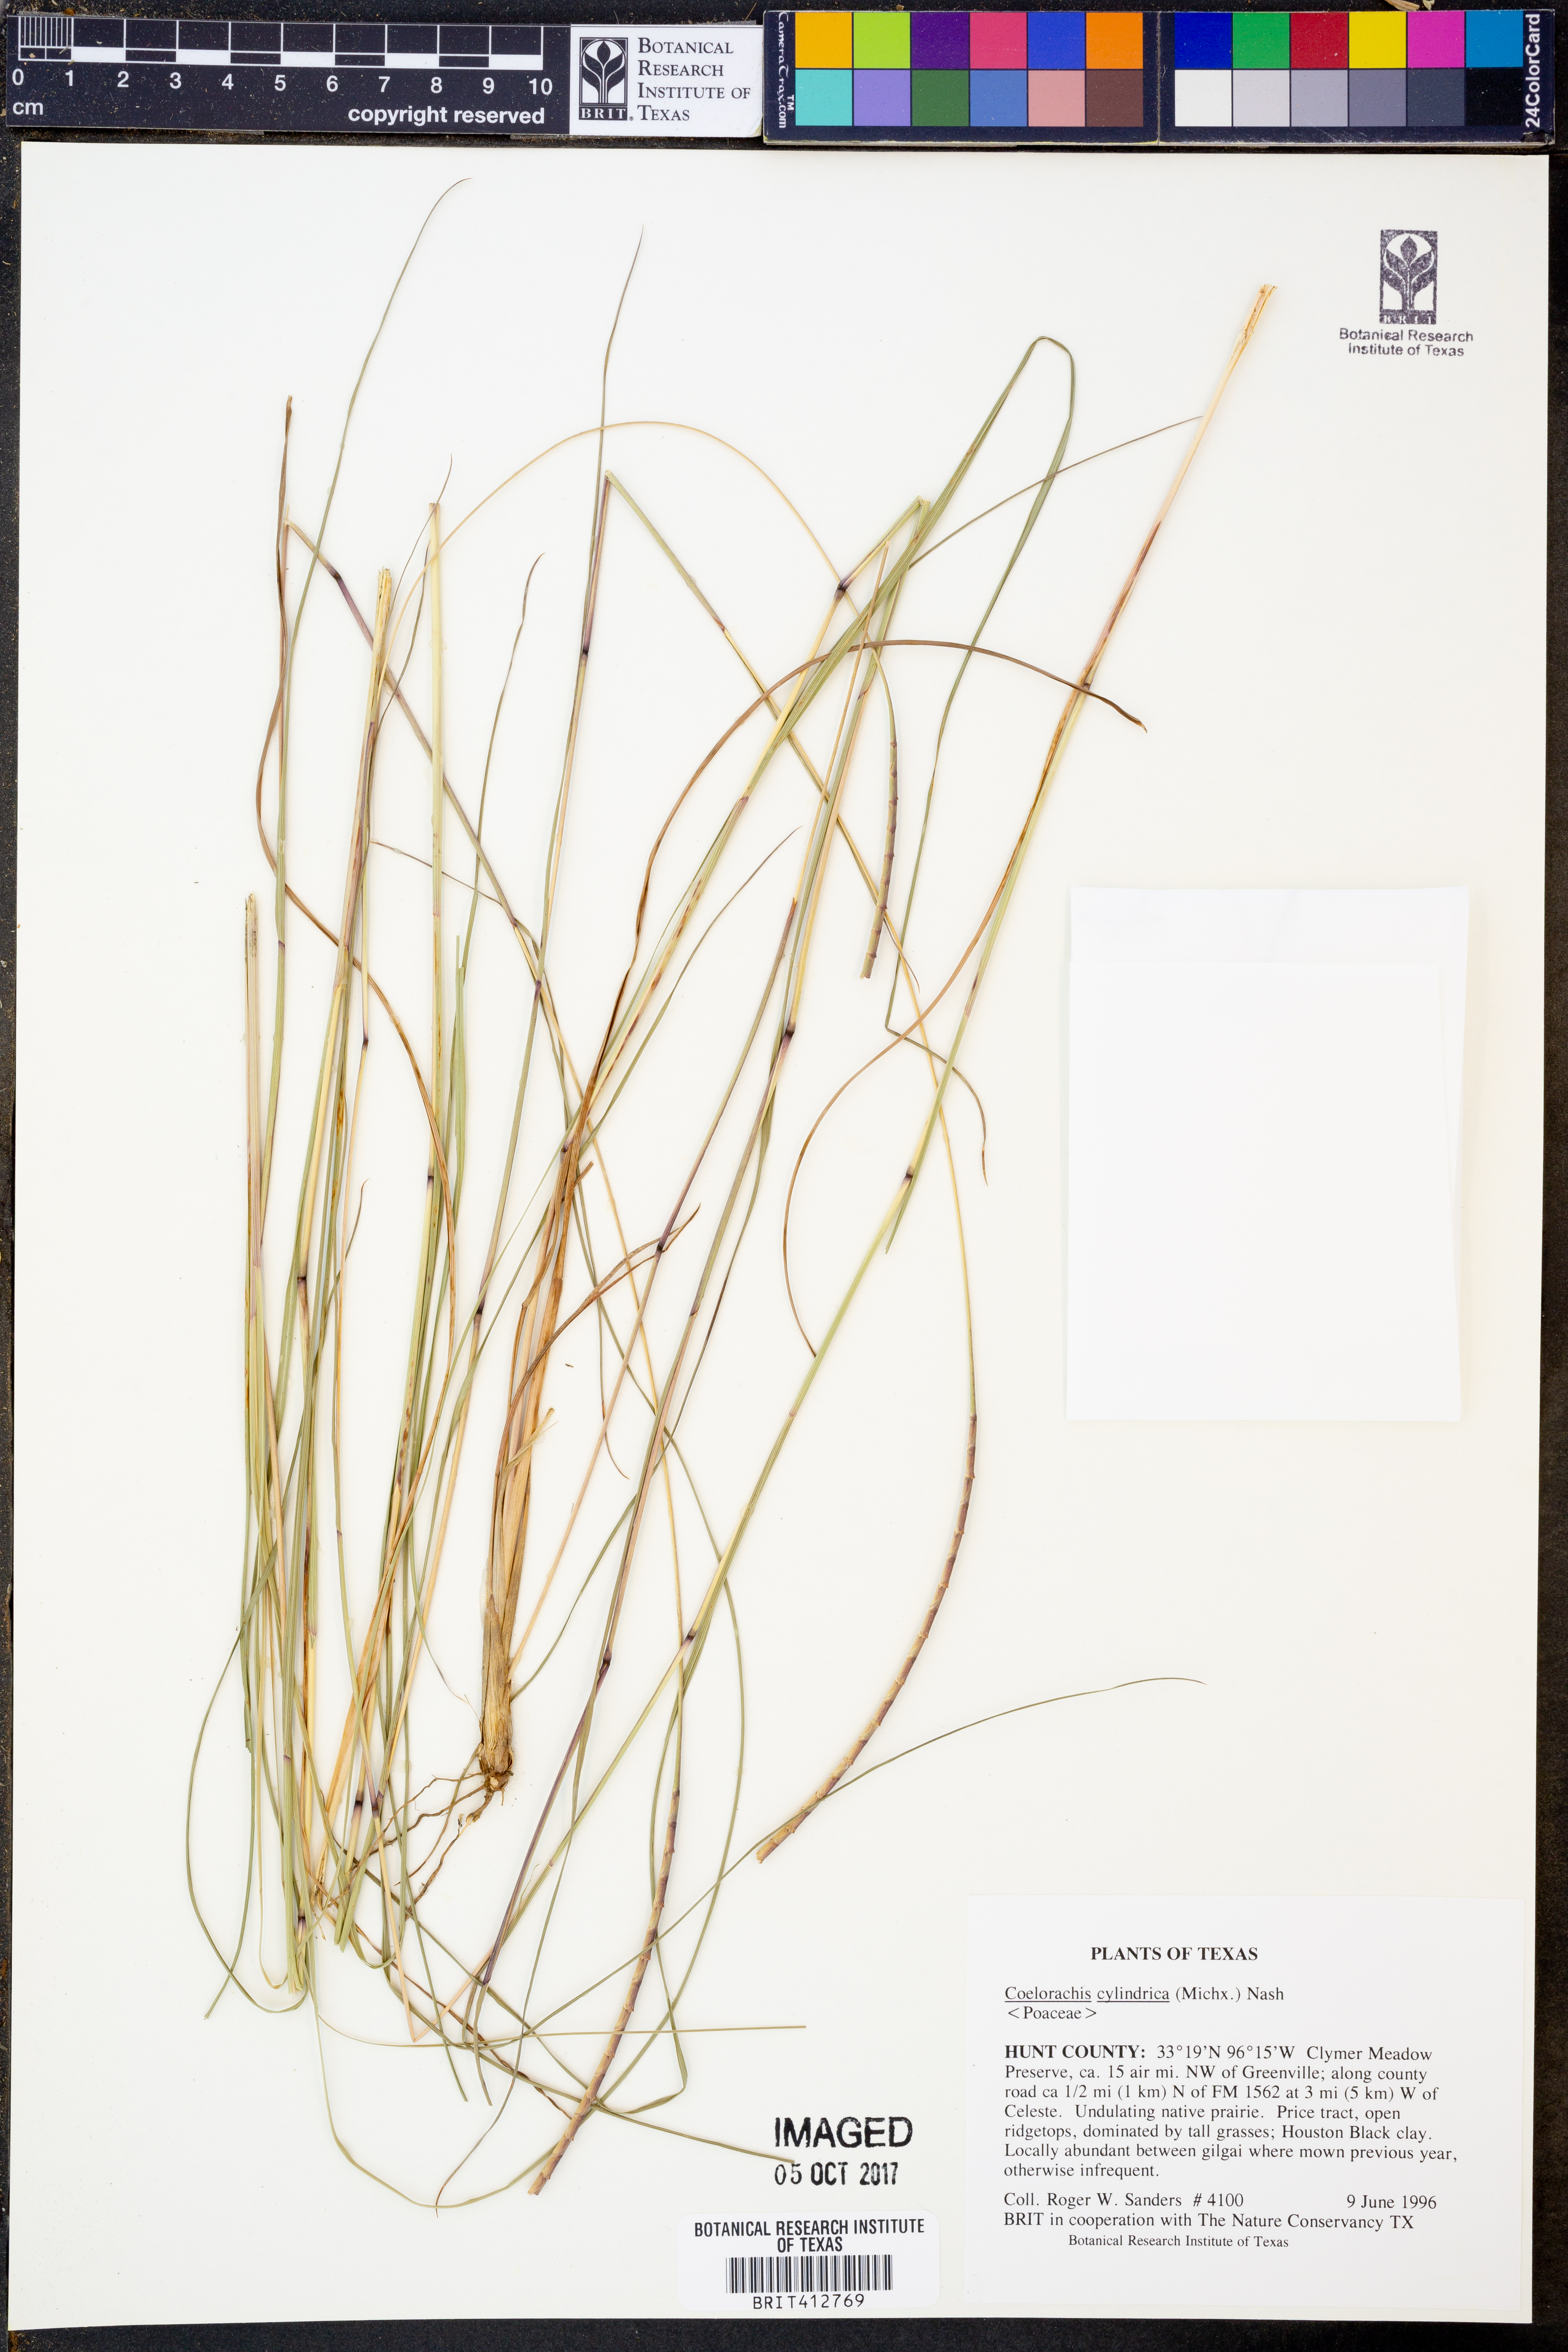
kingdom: Plantae
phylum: Tracheophyta
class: Liliopsida
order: Poales
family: Poaceae
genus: Rottboellia
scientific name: Rottboellia campestris
